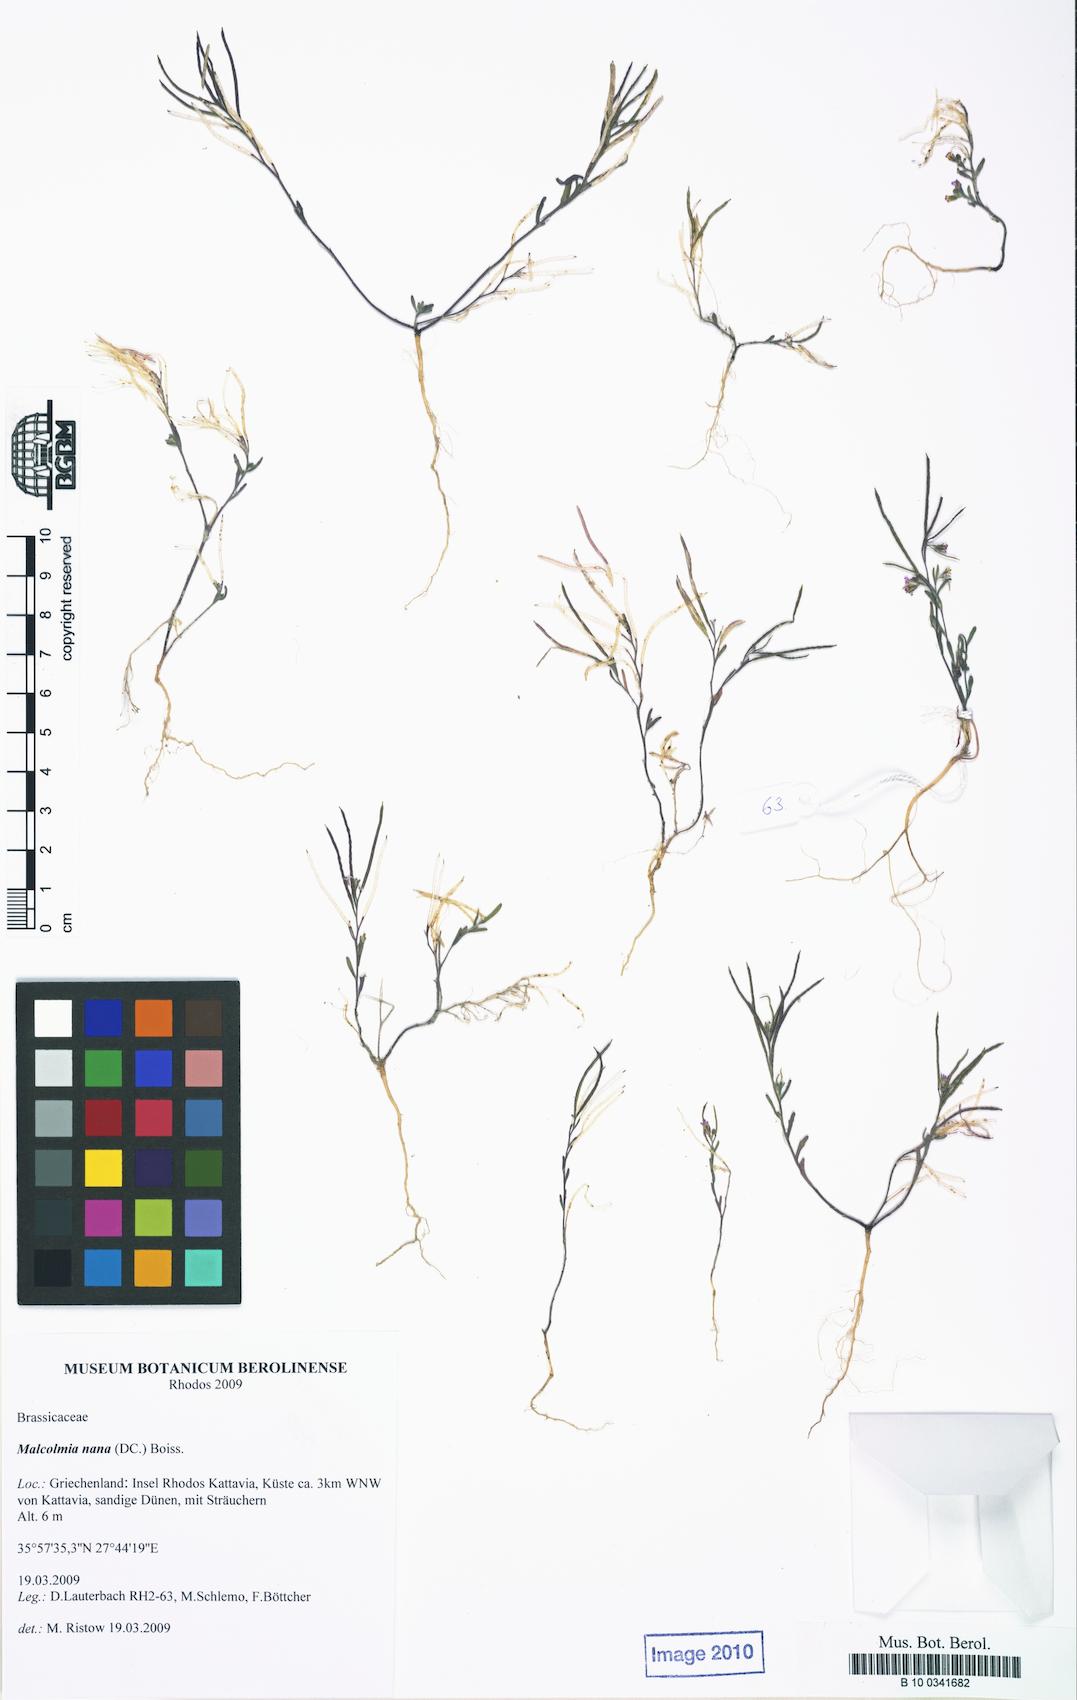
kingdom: Plantae
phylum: Tracheophyta
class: Magnoliopsida
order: Brassicales
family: Brassicaceae
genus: Maresia
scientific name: Maresia nana
